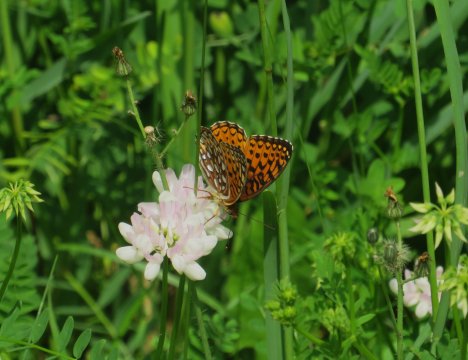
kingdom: Animalia
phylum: Arthropoda
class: Insecta
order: Lepidoptera
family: Nymphalidae
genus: Speyeria
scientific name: Speyeria atlantis
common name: Atlantis Fritillary
